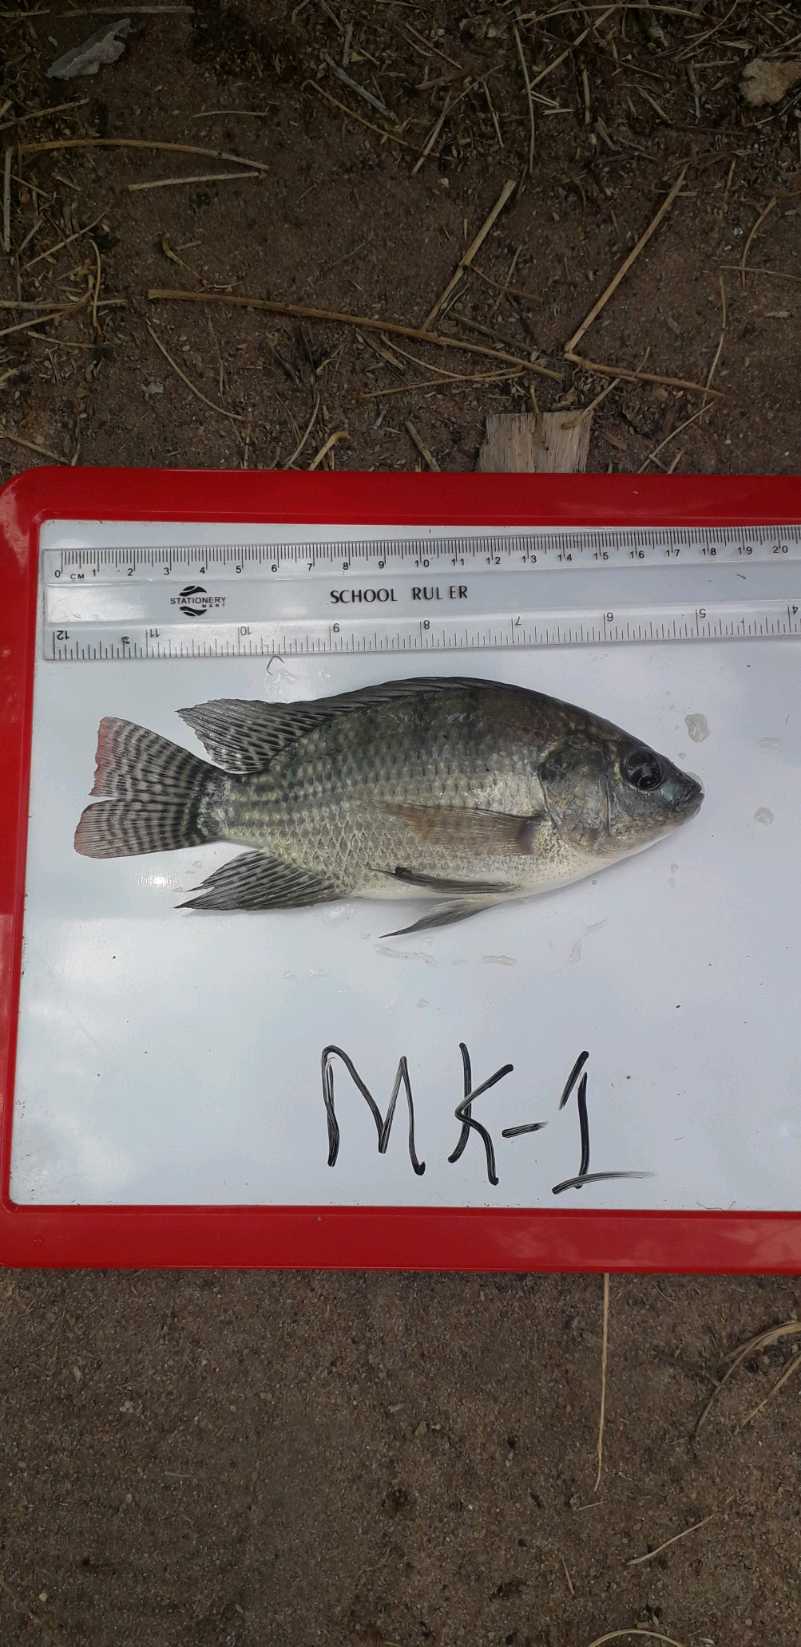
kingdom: Animalia
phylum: Chordata
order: Perciformes
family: Cichlidae
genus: Oreochromis
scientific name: Oreochromis niloticus
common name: Nile tilapia
